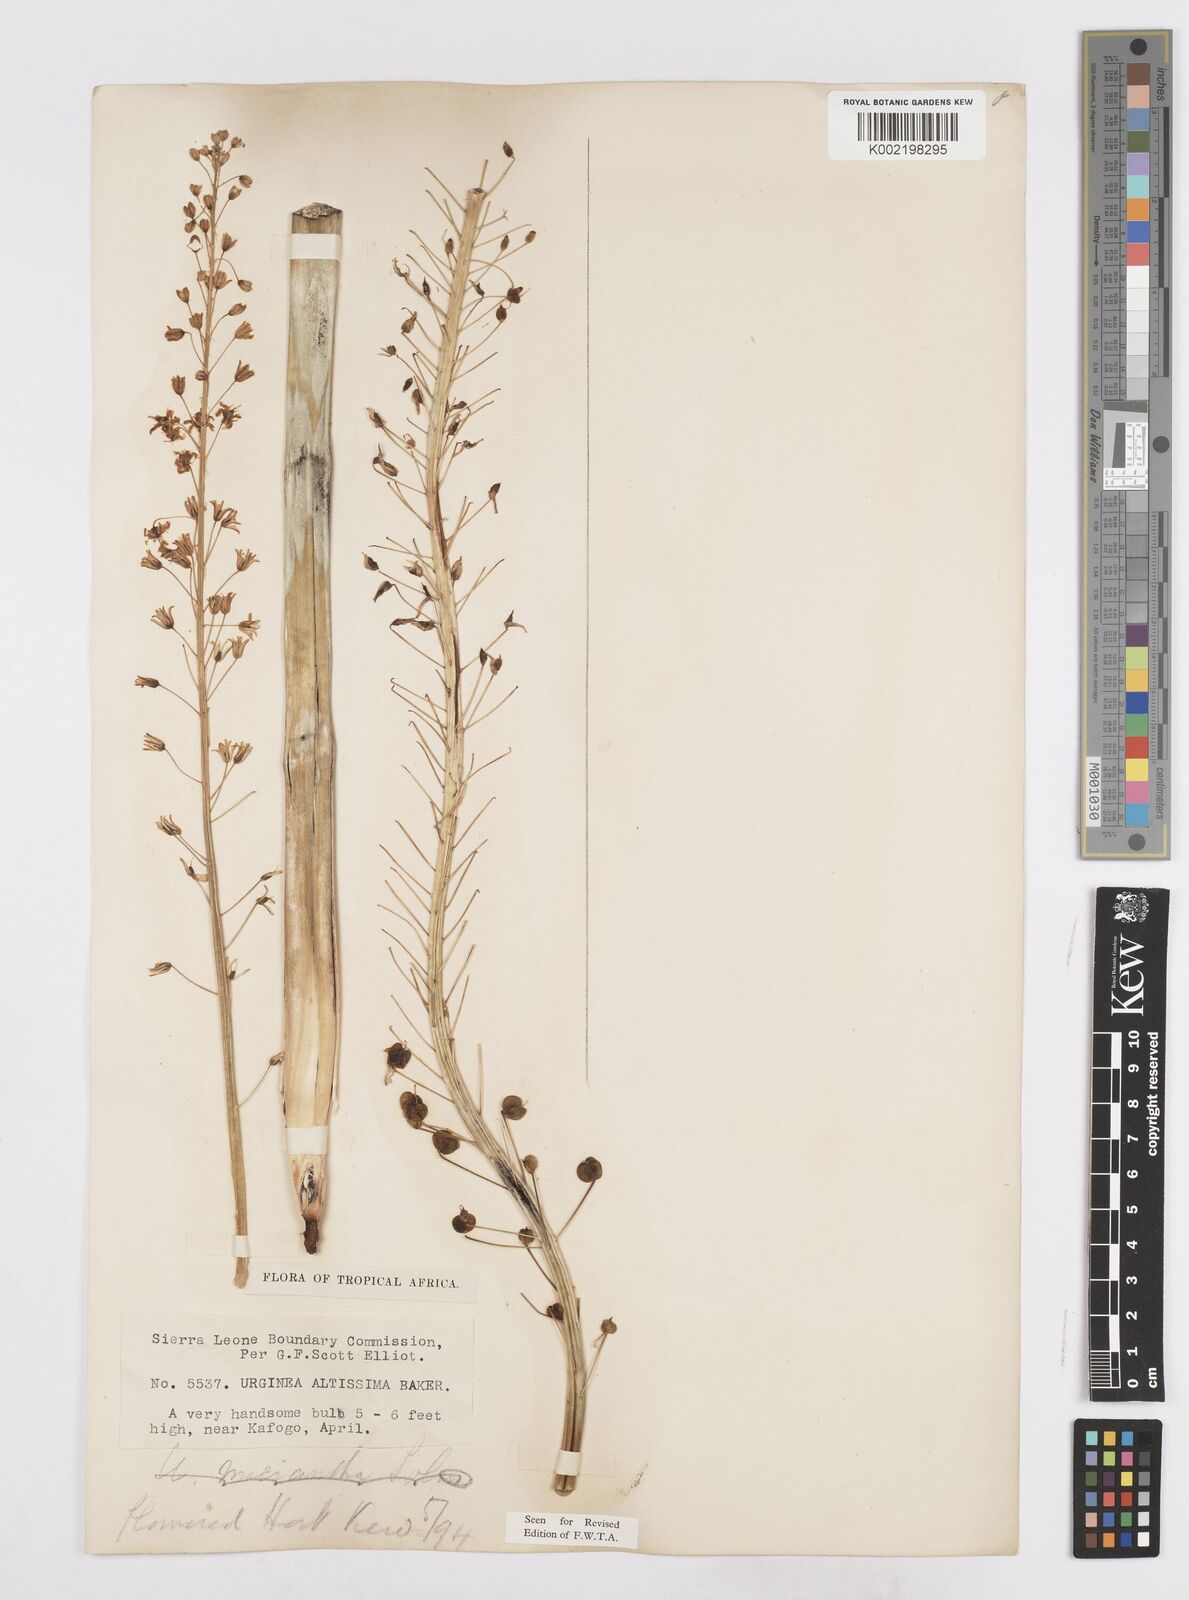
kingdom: Plantae
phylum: Tracheophyta
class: Liliopsida
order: Asparagales
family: Asparagaceae
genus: Drimia
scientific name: Drimia altissima
